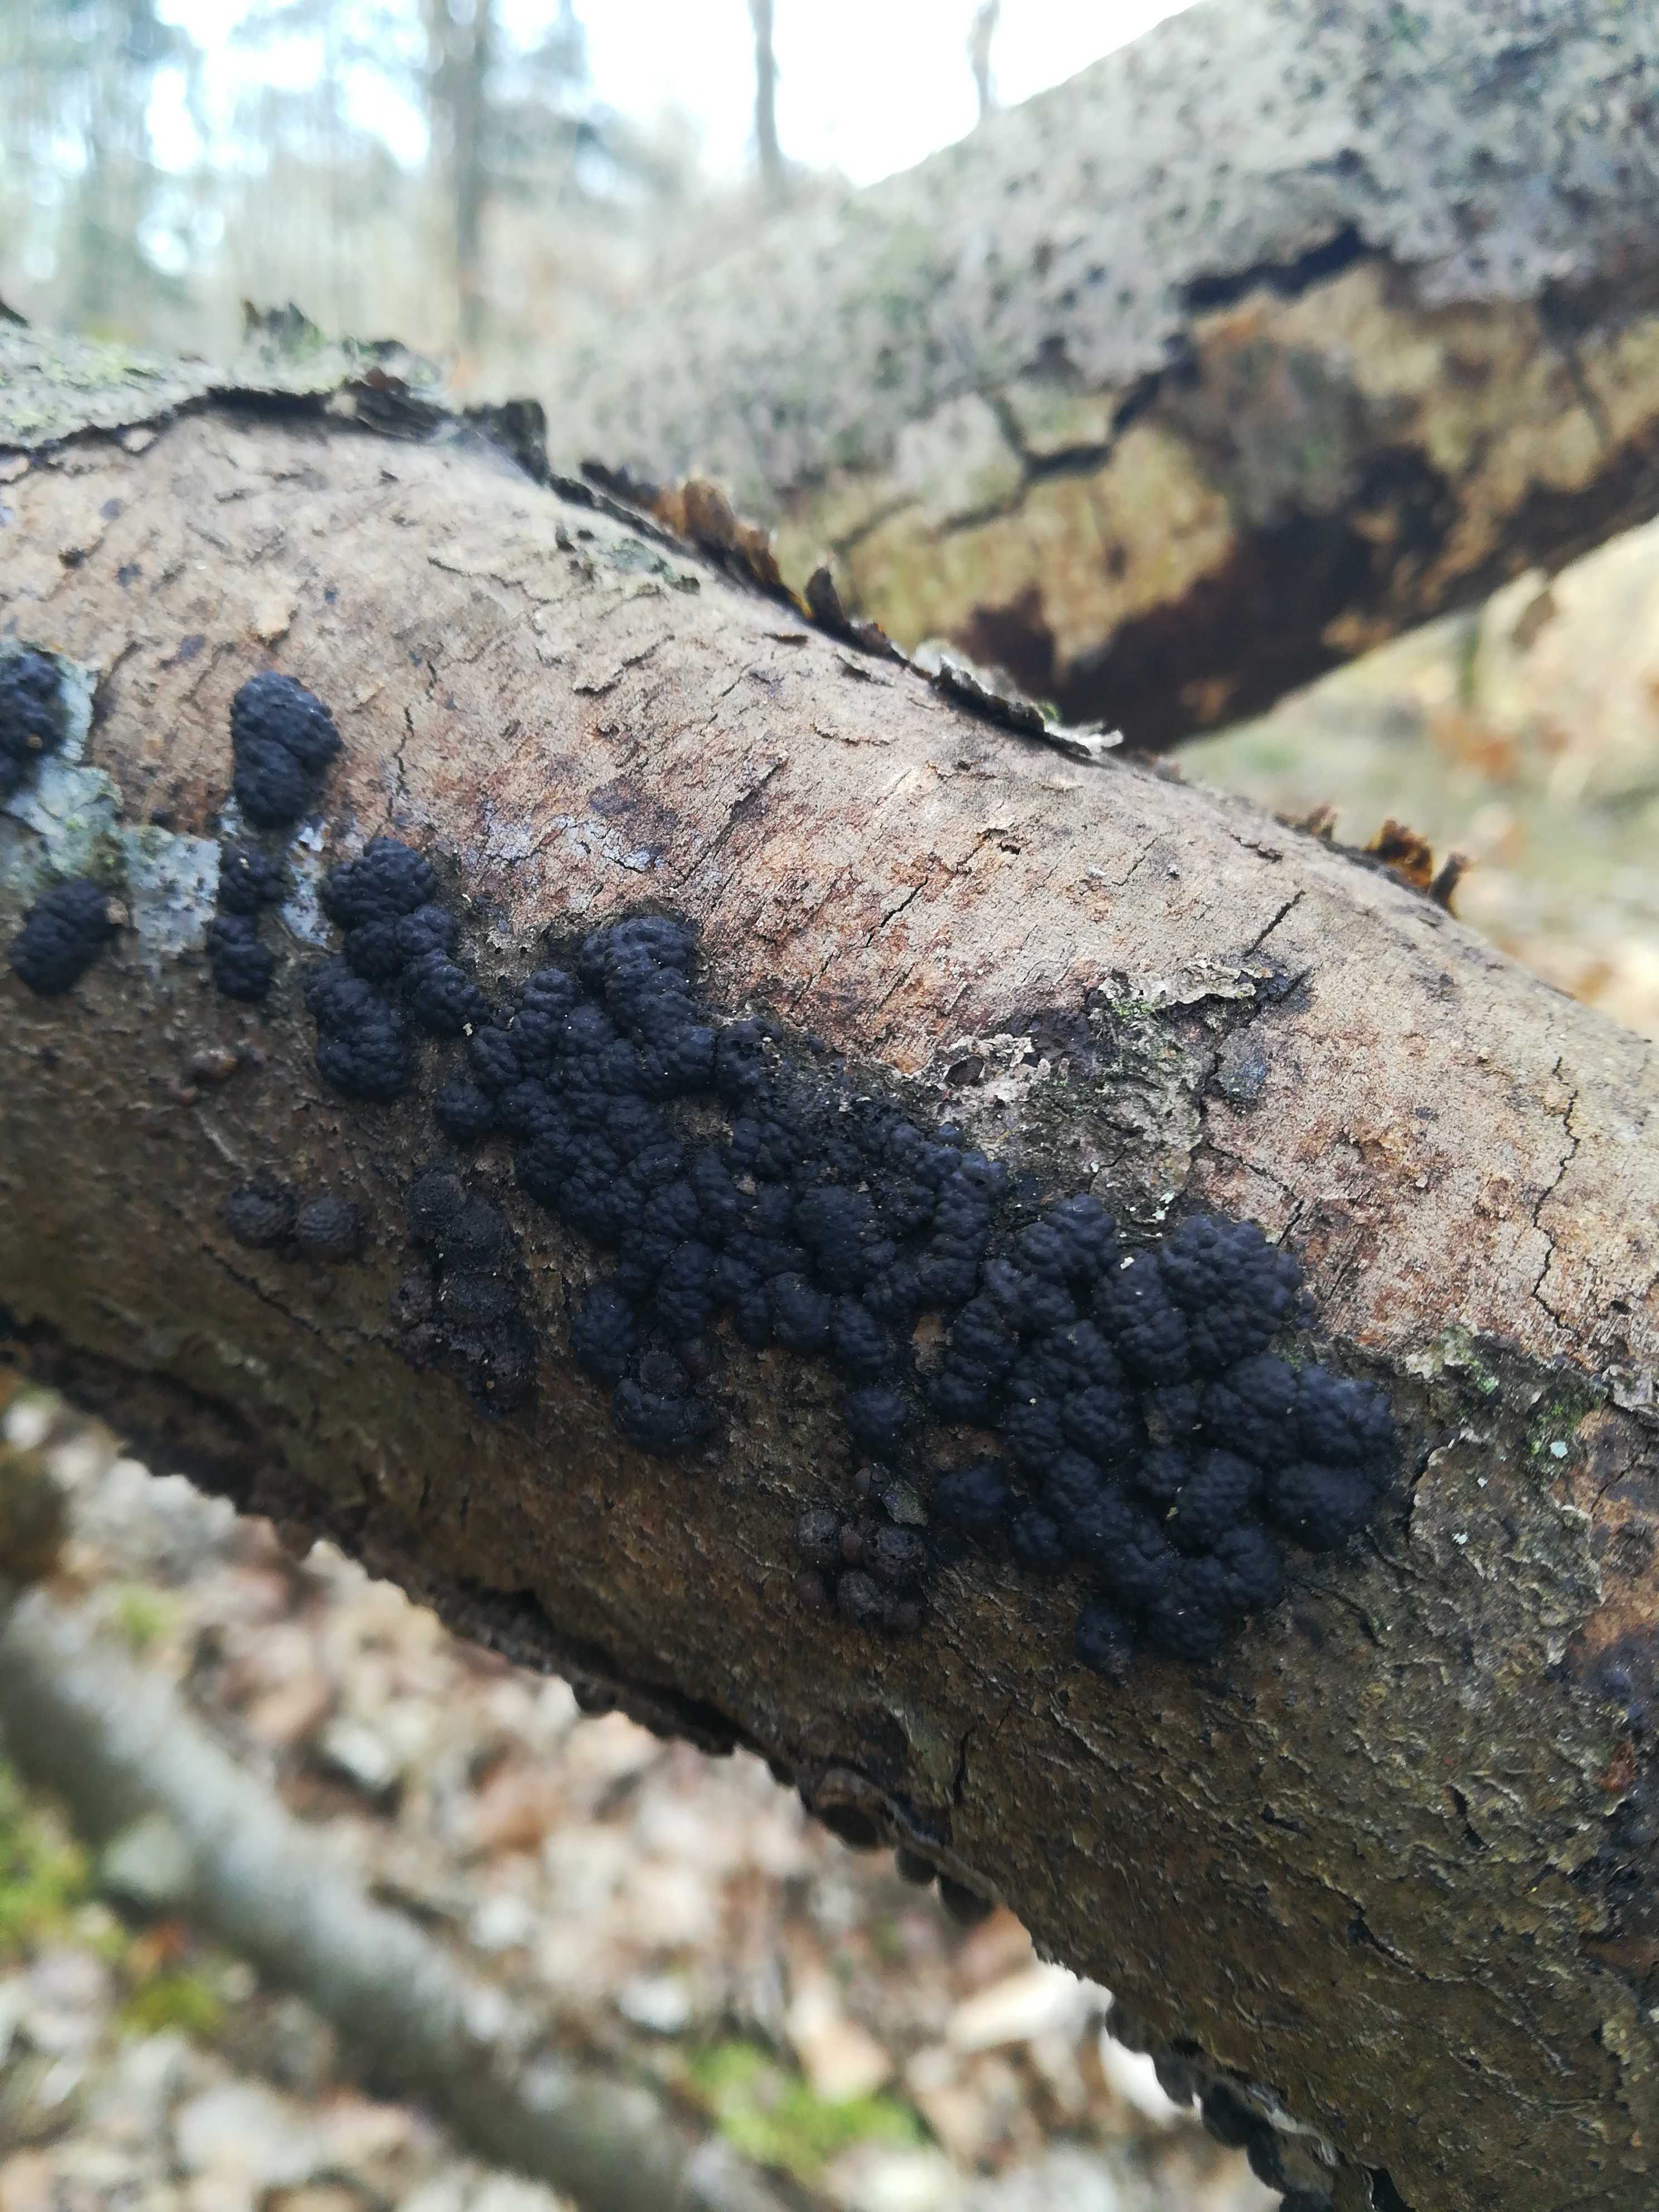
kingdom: Fungi
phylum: Ascomycota
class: Sordariomycetes
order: Xylariales
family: Hypoxylaceae
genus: Jackrogersella
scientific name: Jackrogersella cohaerens
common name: sammenflydende kulbær
